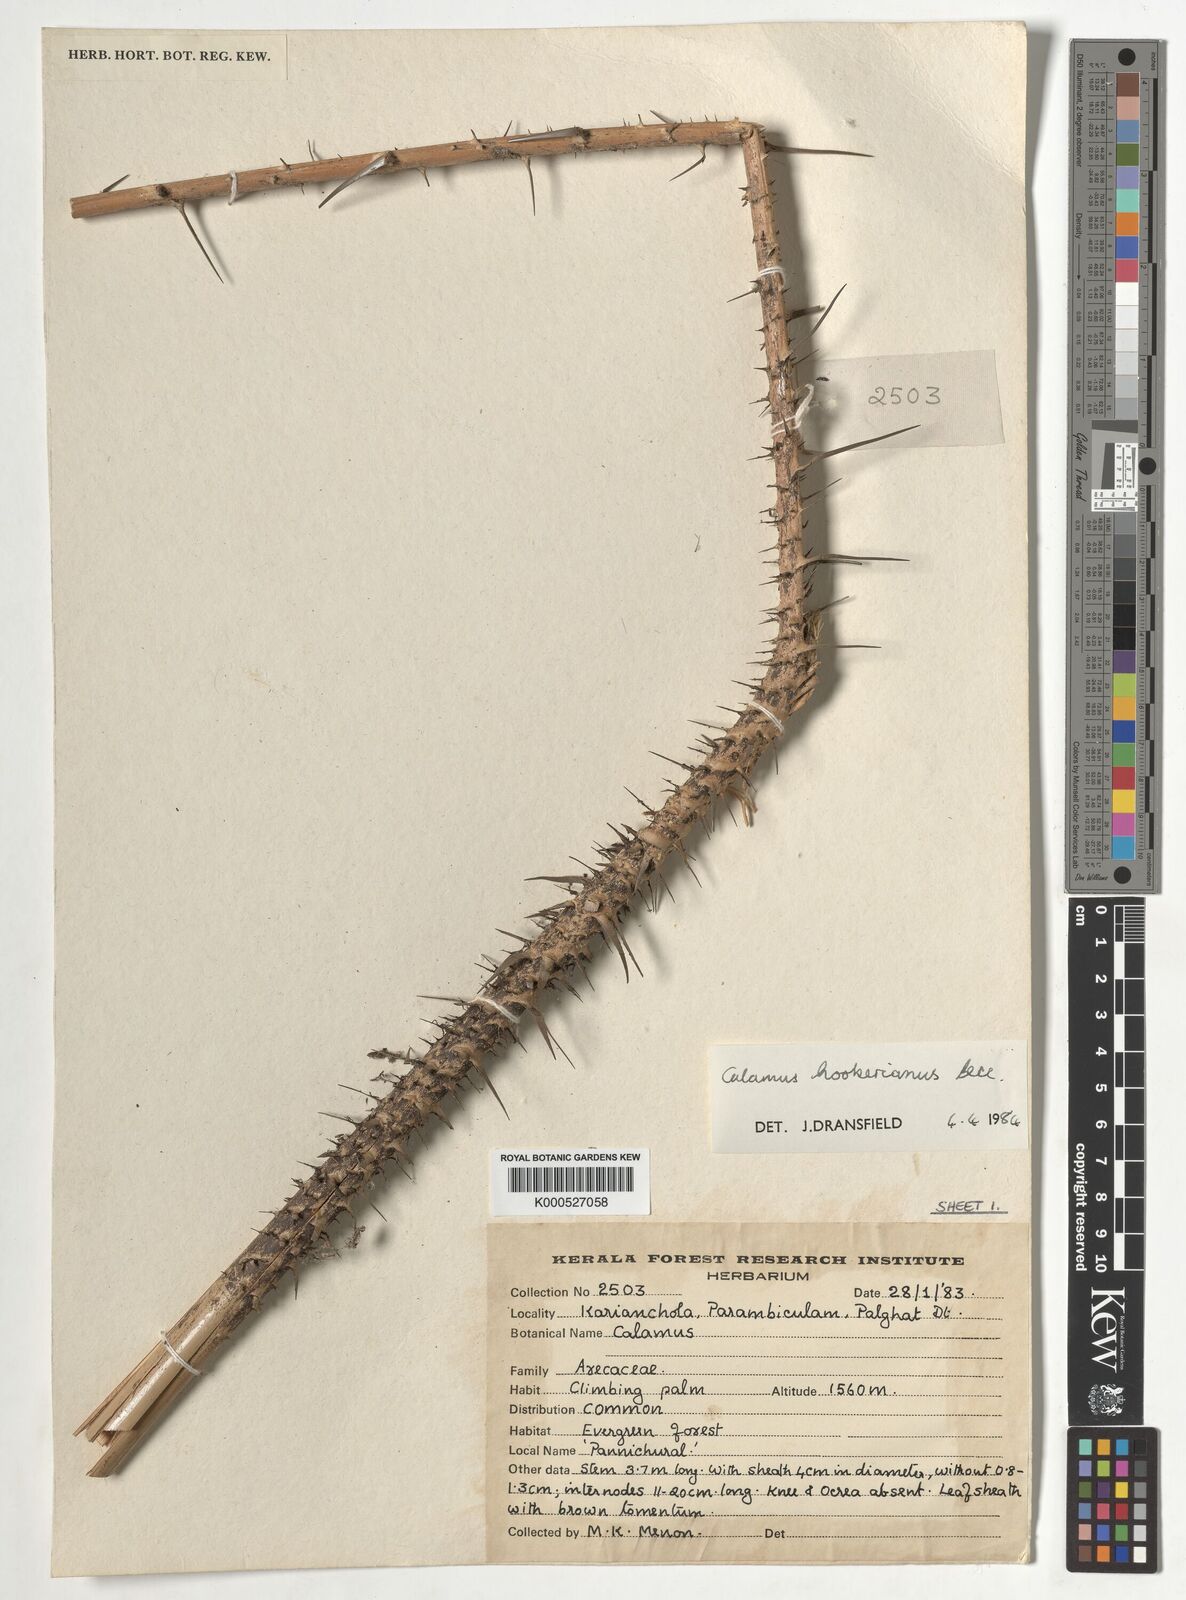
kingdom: Plantae
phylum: Tracheophyta
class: Liliopsida
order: Arecales
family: Arecaceae
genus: Calamus
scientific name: Calamus hookerianus
